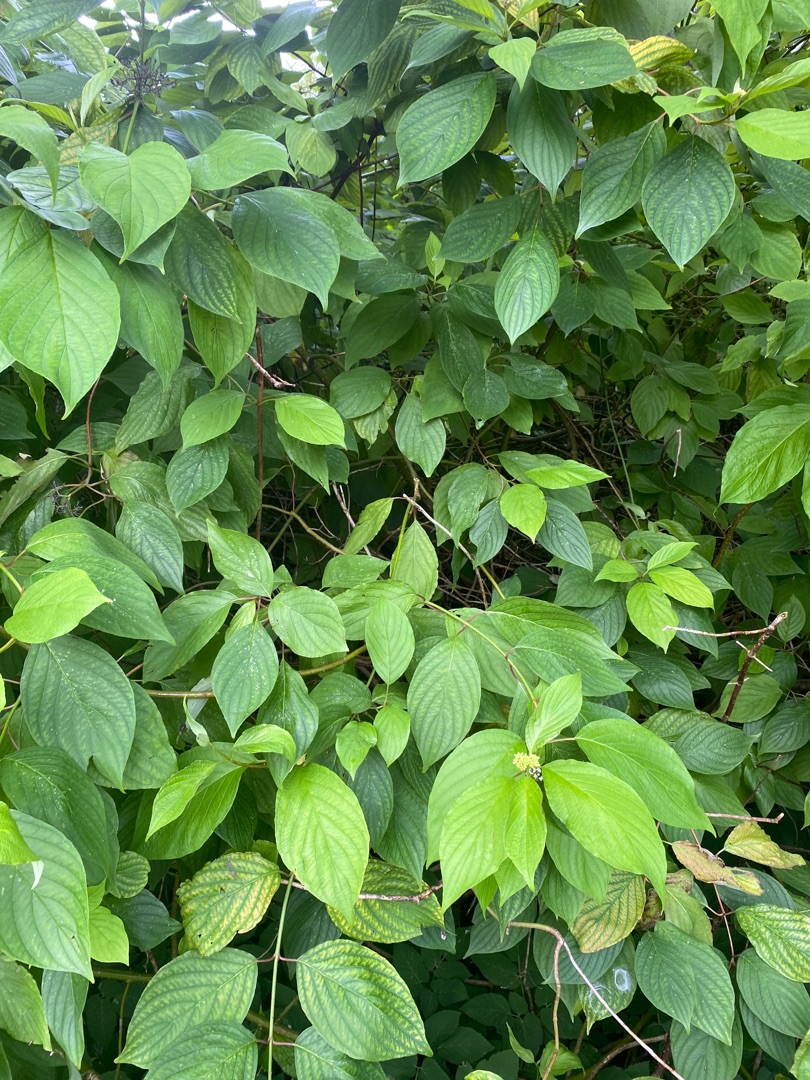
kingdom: Plantae
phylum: Tracheophyta
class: Magnoliopsida
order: Cornales
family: Cornaceae
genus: Cornus
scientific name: Cornus sericea
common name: Krybende kornel
